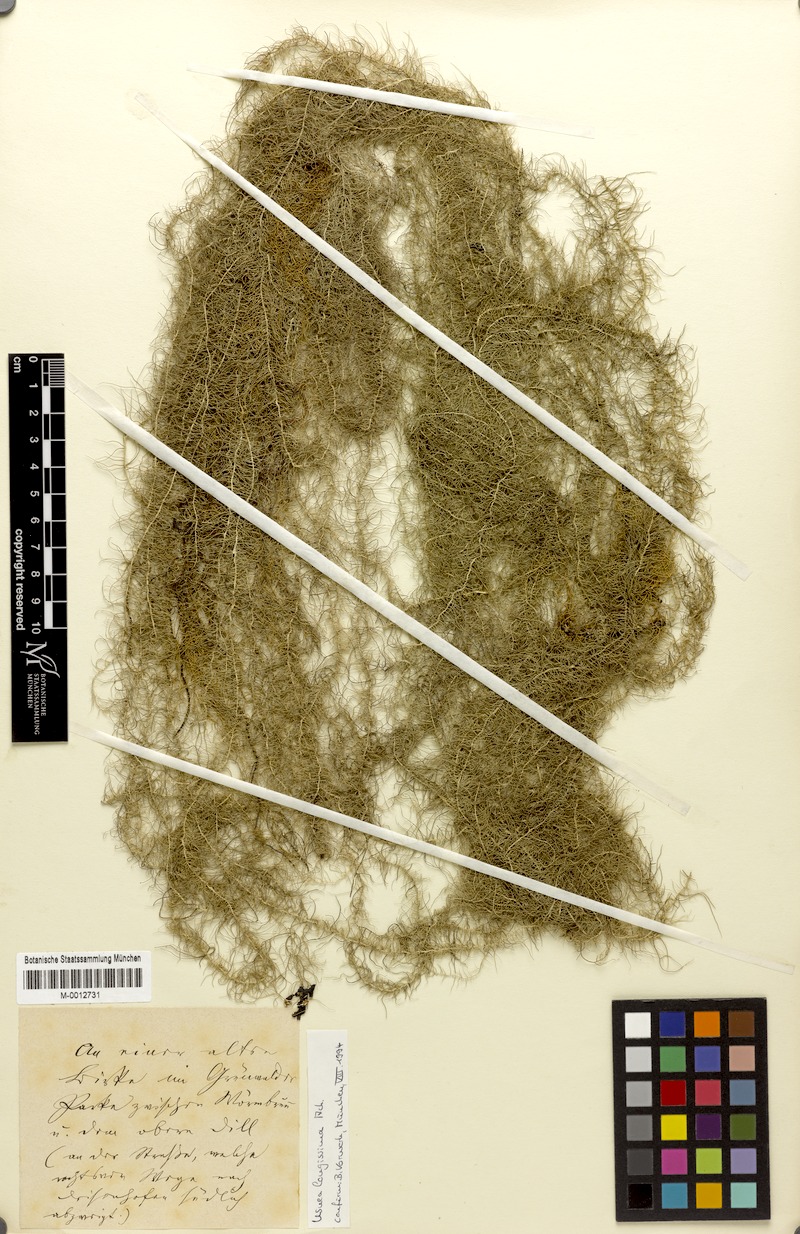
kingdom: Fungi
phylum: Ascomycota
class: Lecanoromycetes
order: Lecanorales
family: Parmeliaceae
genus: Dolichousnea
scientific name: Dolichousnea longissima
